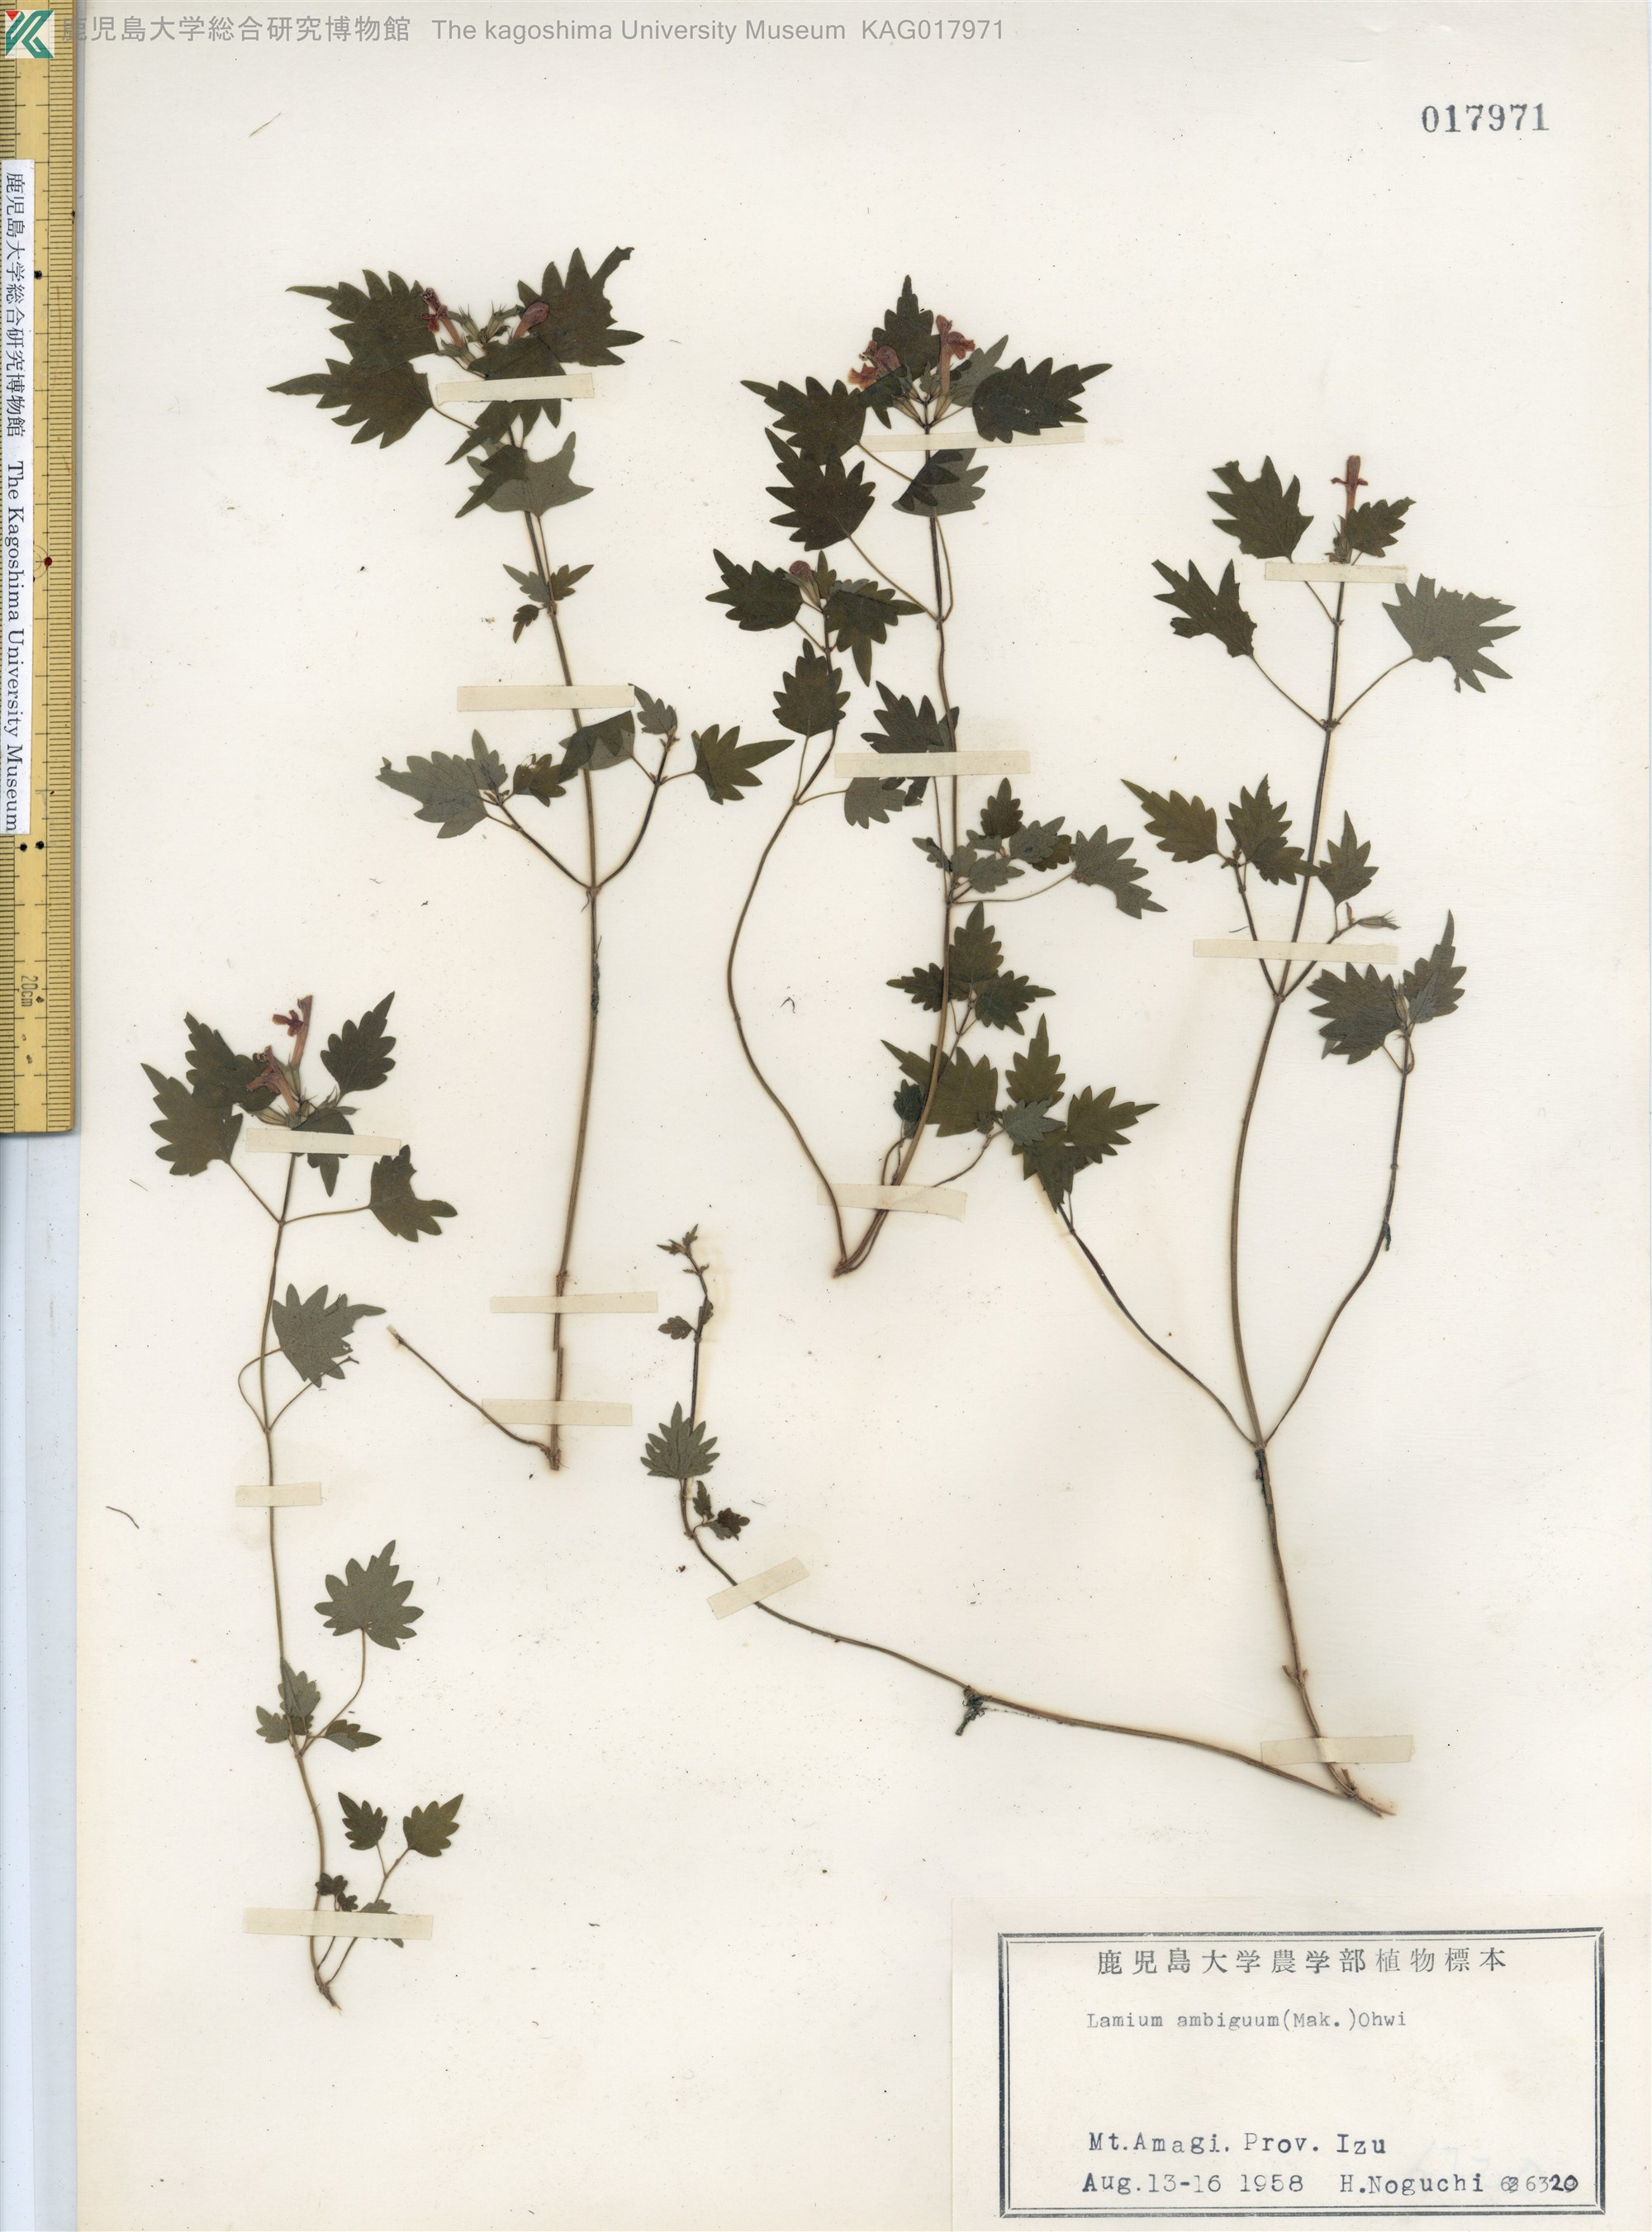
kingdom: Plantae
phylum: Tracheophyta
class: Magnoliopsida
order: Lamiales
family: Lamiaceae
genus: Loxocalyx
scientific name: Loxocalyx ambiguus
